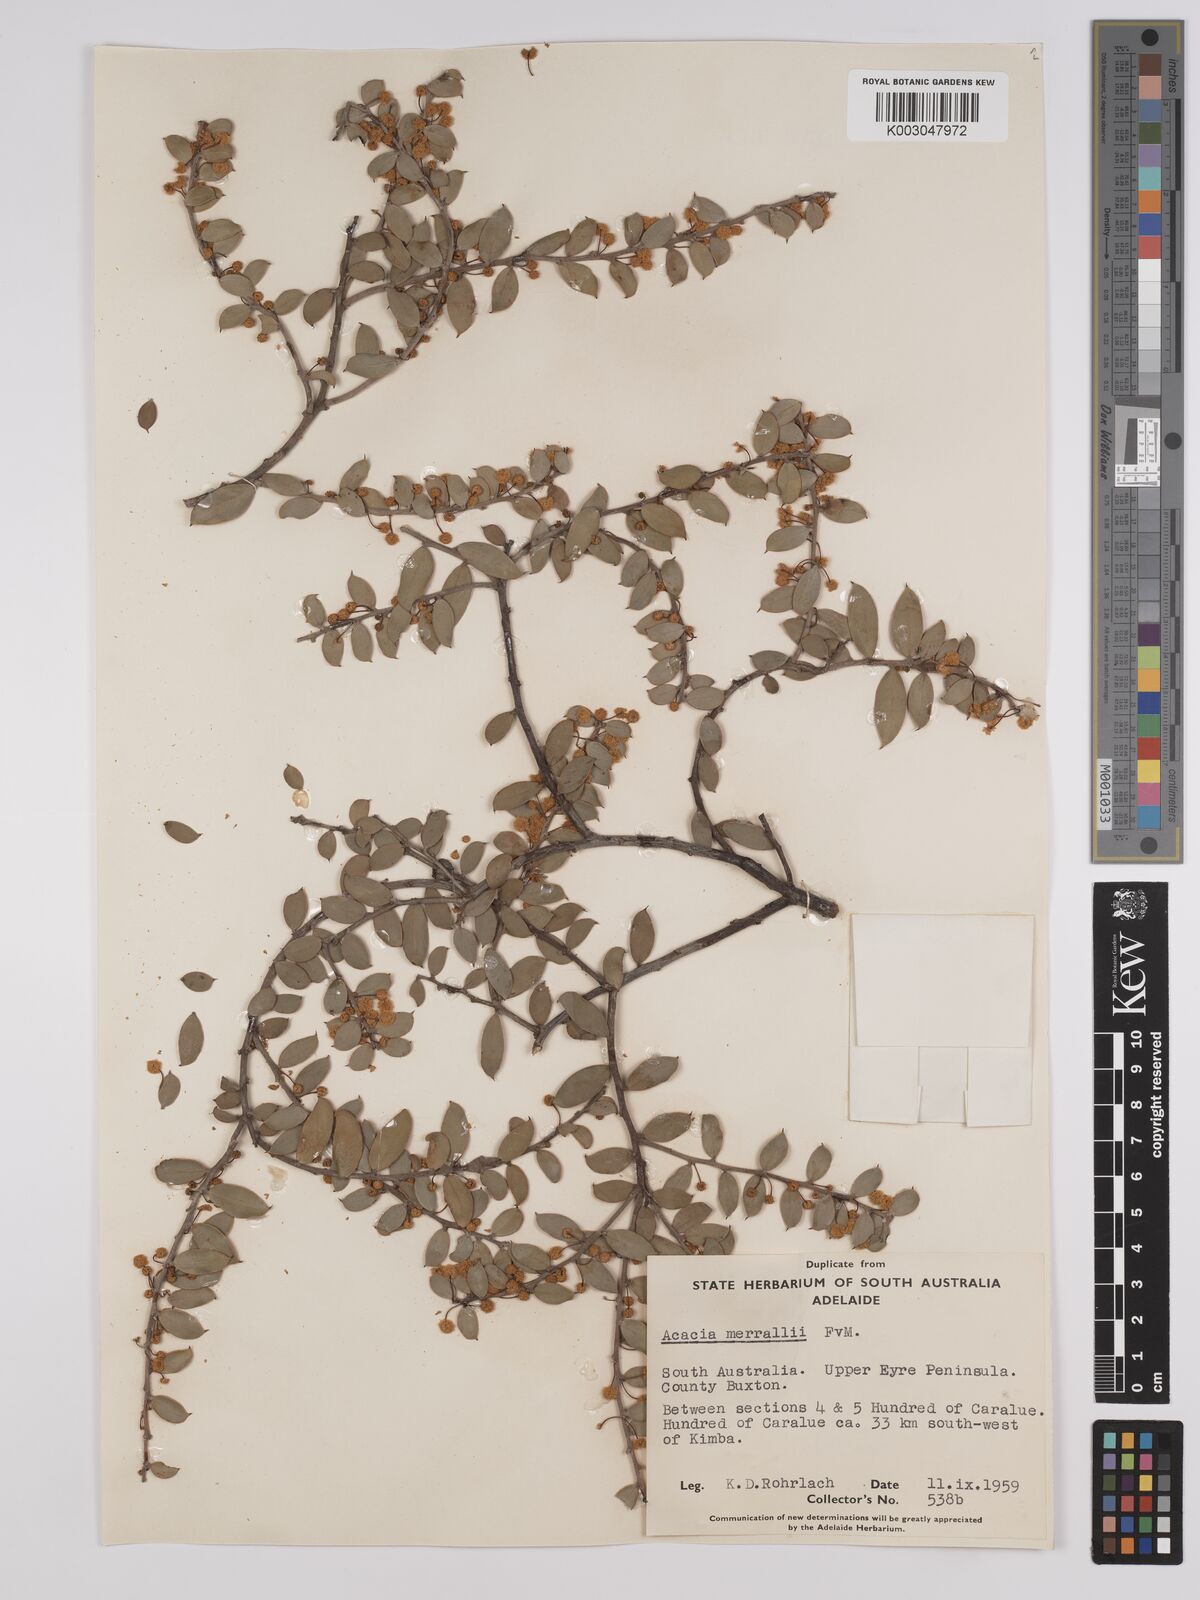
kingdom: Plantae
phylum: Tracheophyta
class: Magnoliopsida
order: Fabales
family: Fabaceae
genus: Acacia
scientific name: Acacia merrallii
